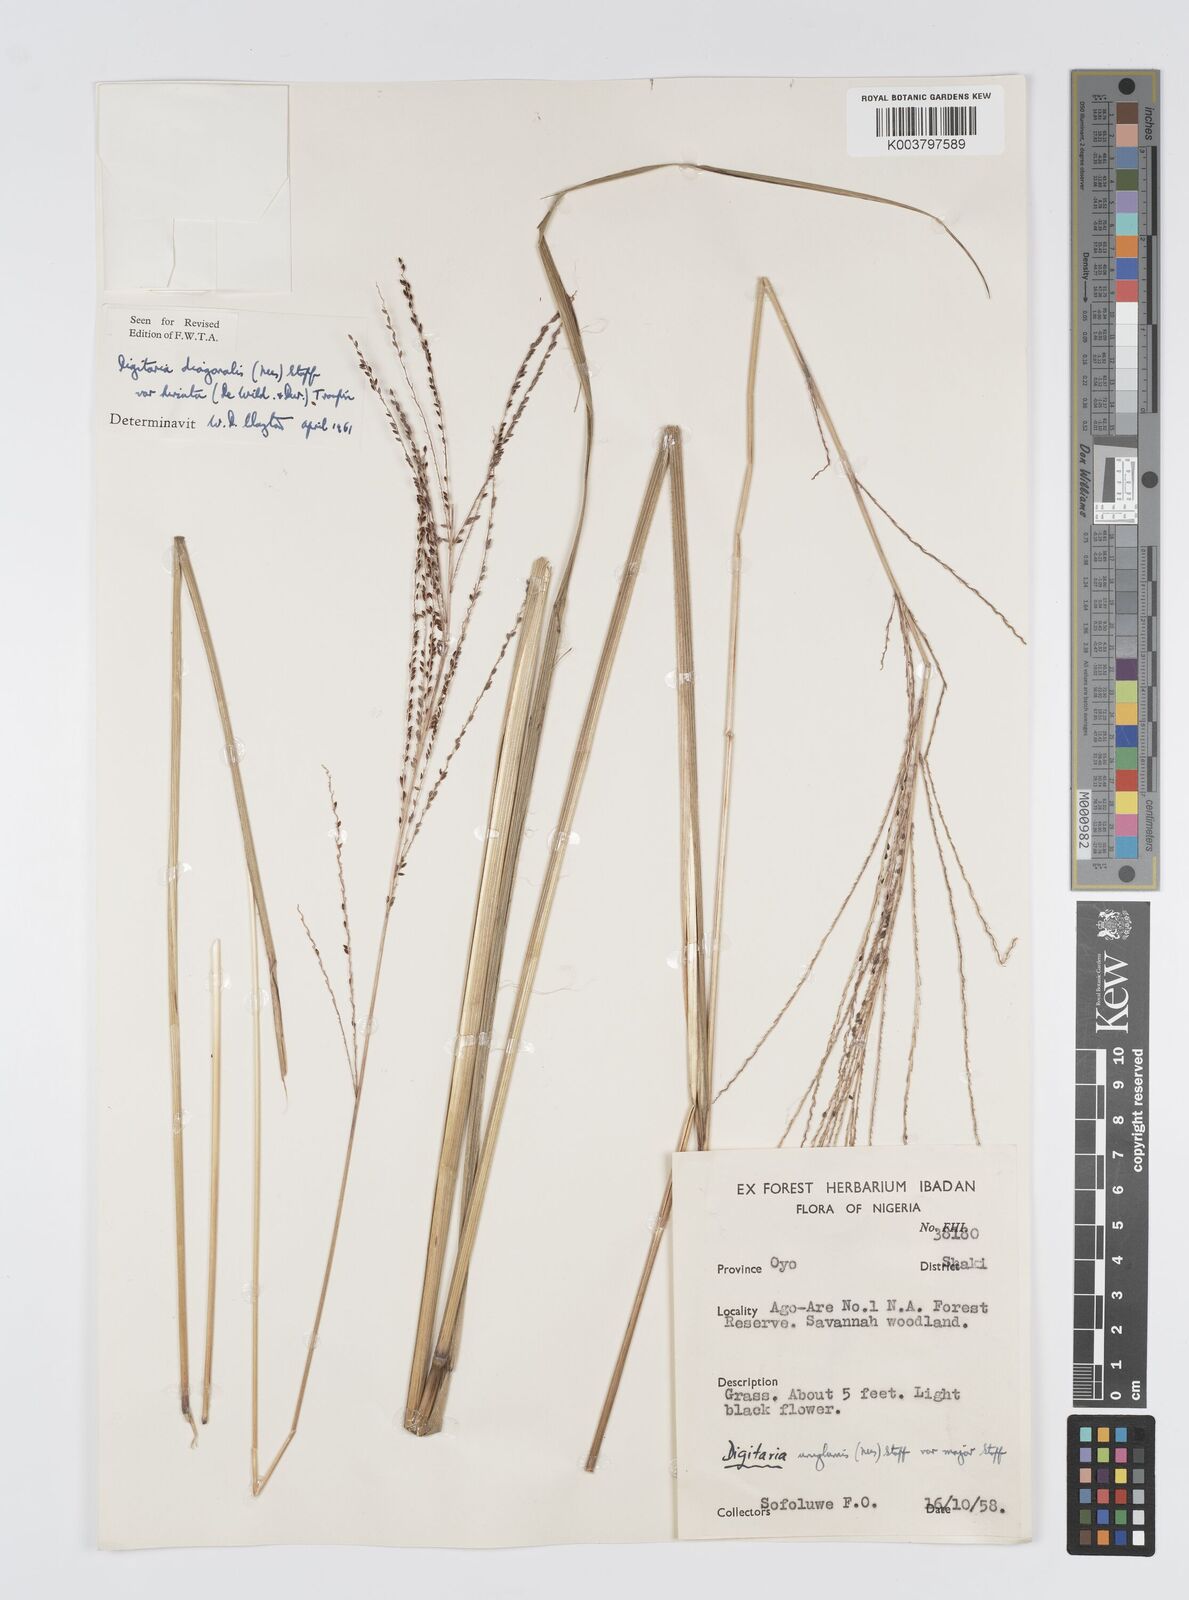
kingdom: Plantae
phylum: Tracheophyta
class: Liliopsida
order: Poales
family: Poaceae
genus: Digitaria
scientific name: Digitaria diagonalis
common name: Brown-seed finger grass
